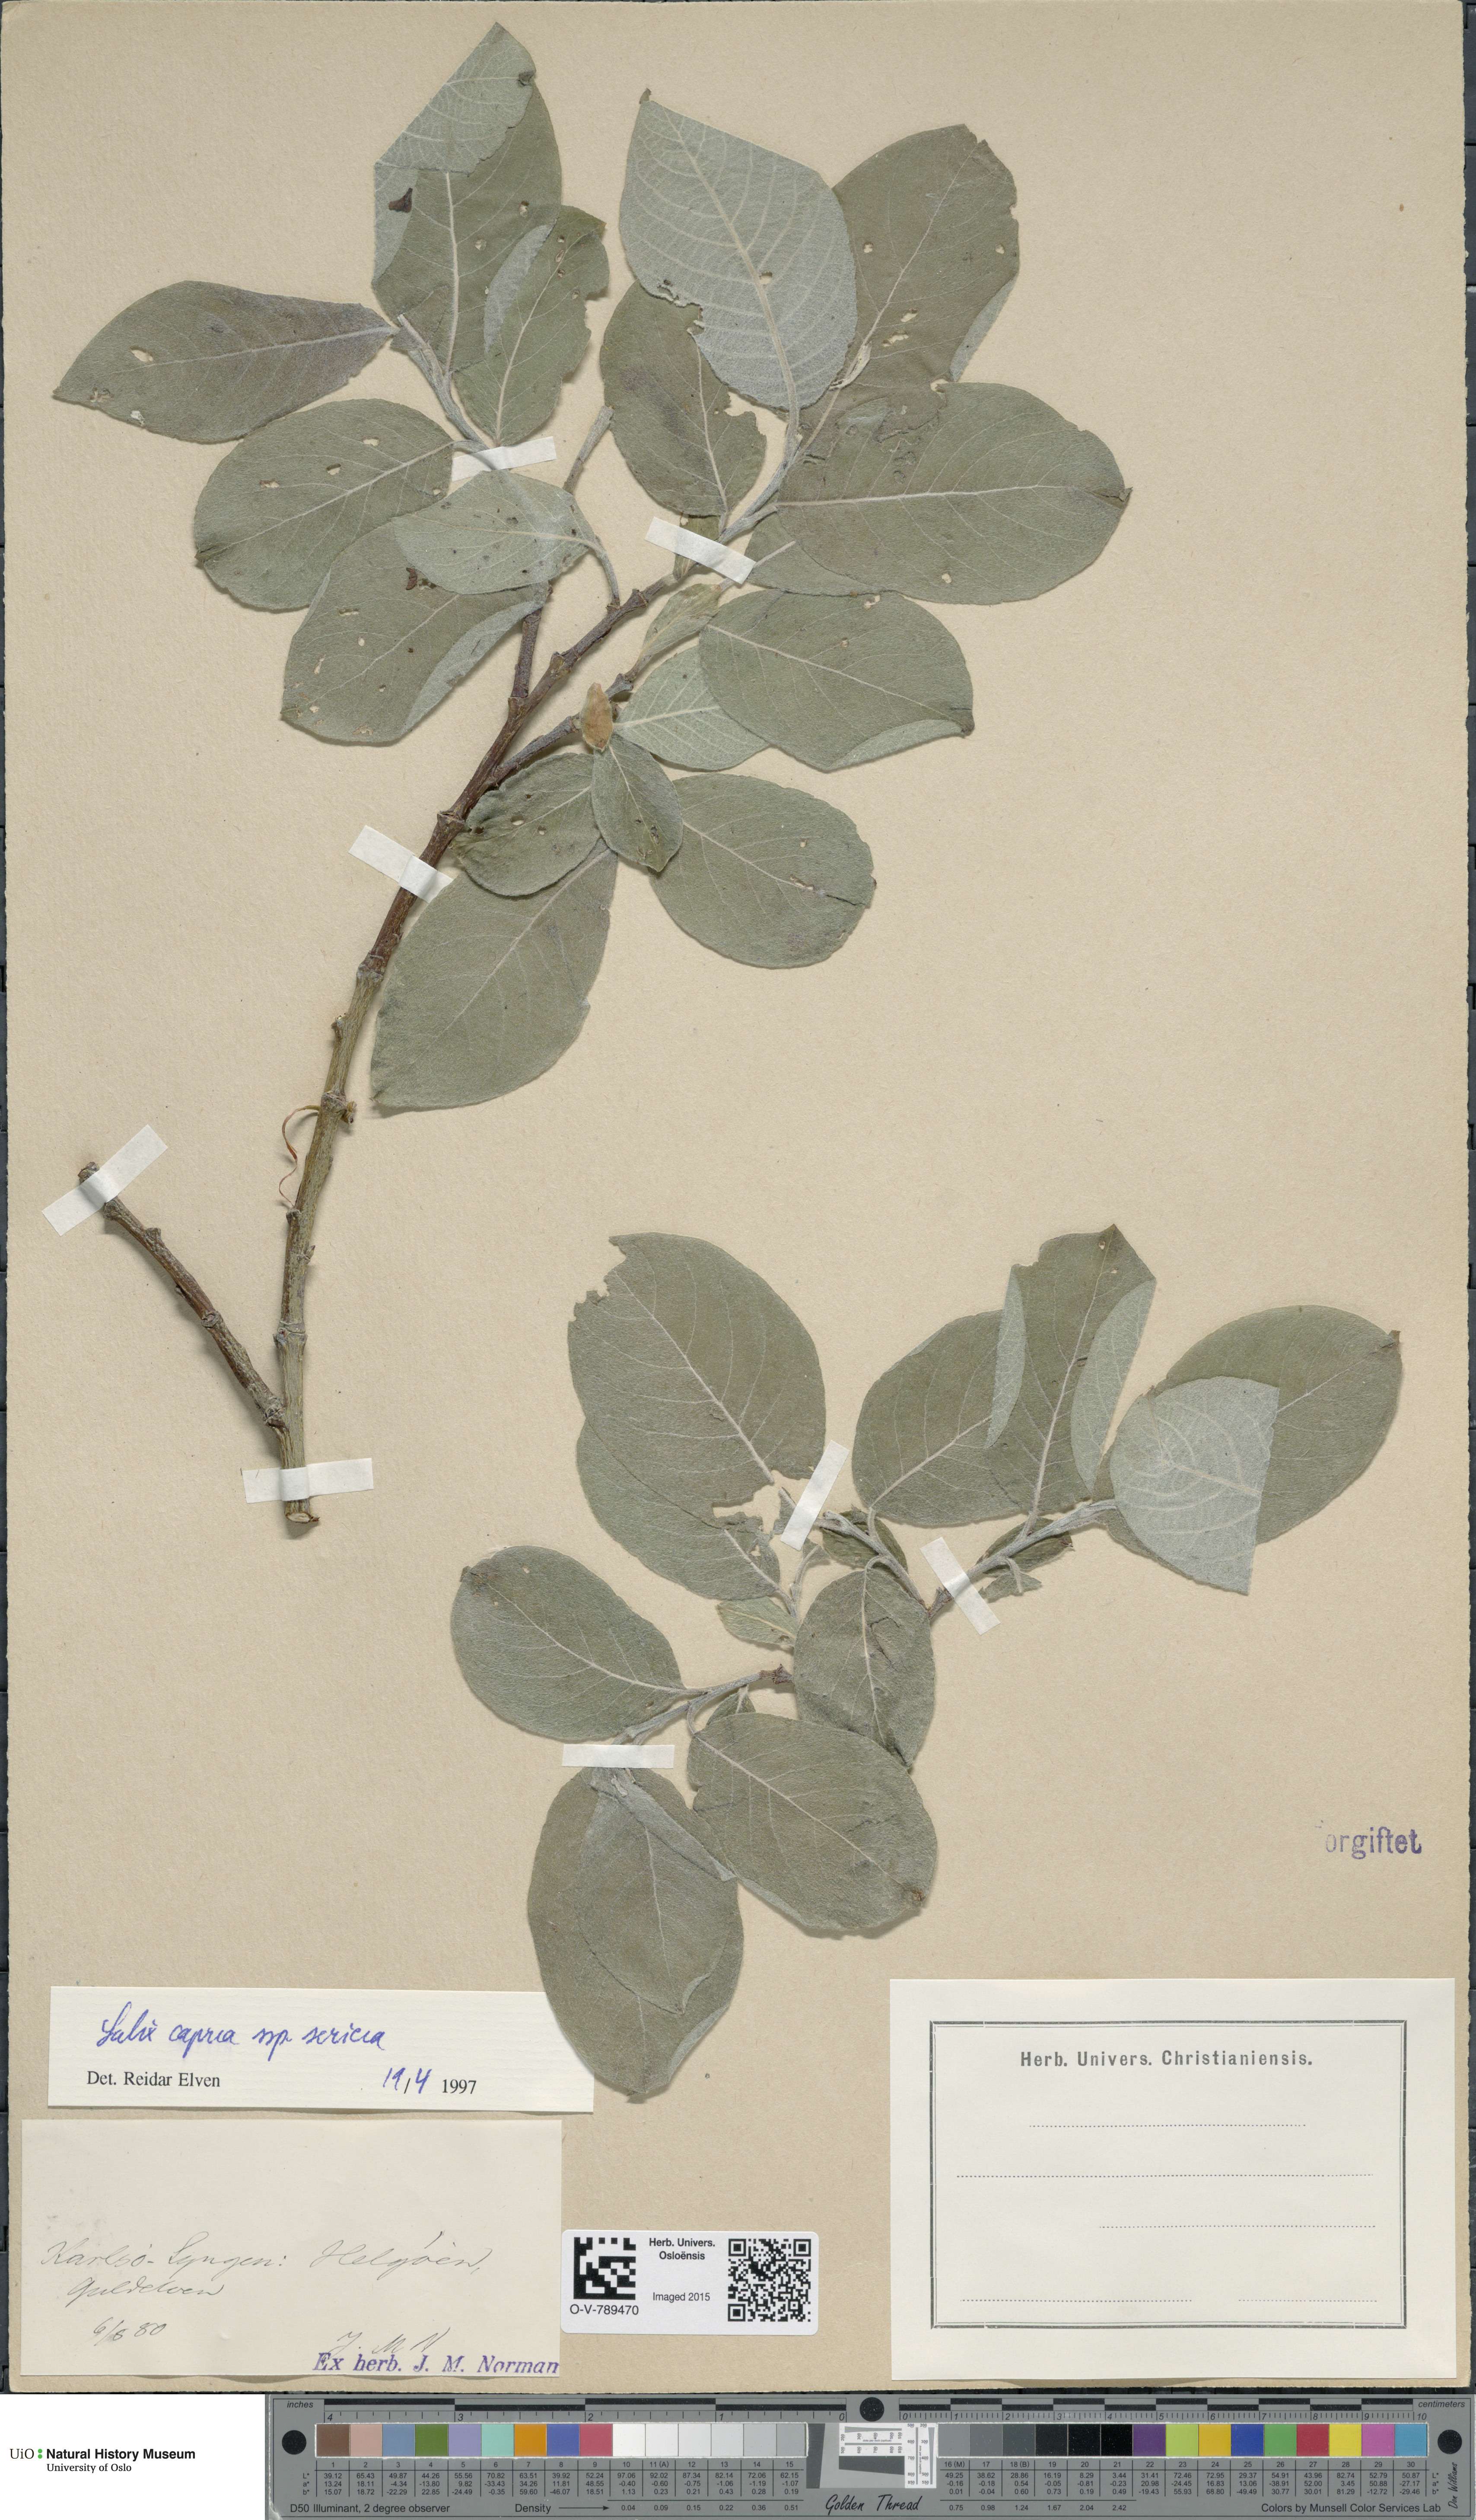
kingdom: Plantae
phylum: Tracheophyta
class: Magnoliopsida
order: Malpighiales
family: Salicaceae
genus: Salix
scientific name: Salix caprea
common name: Goat willow
